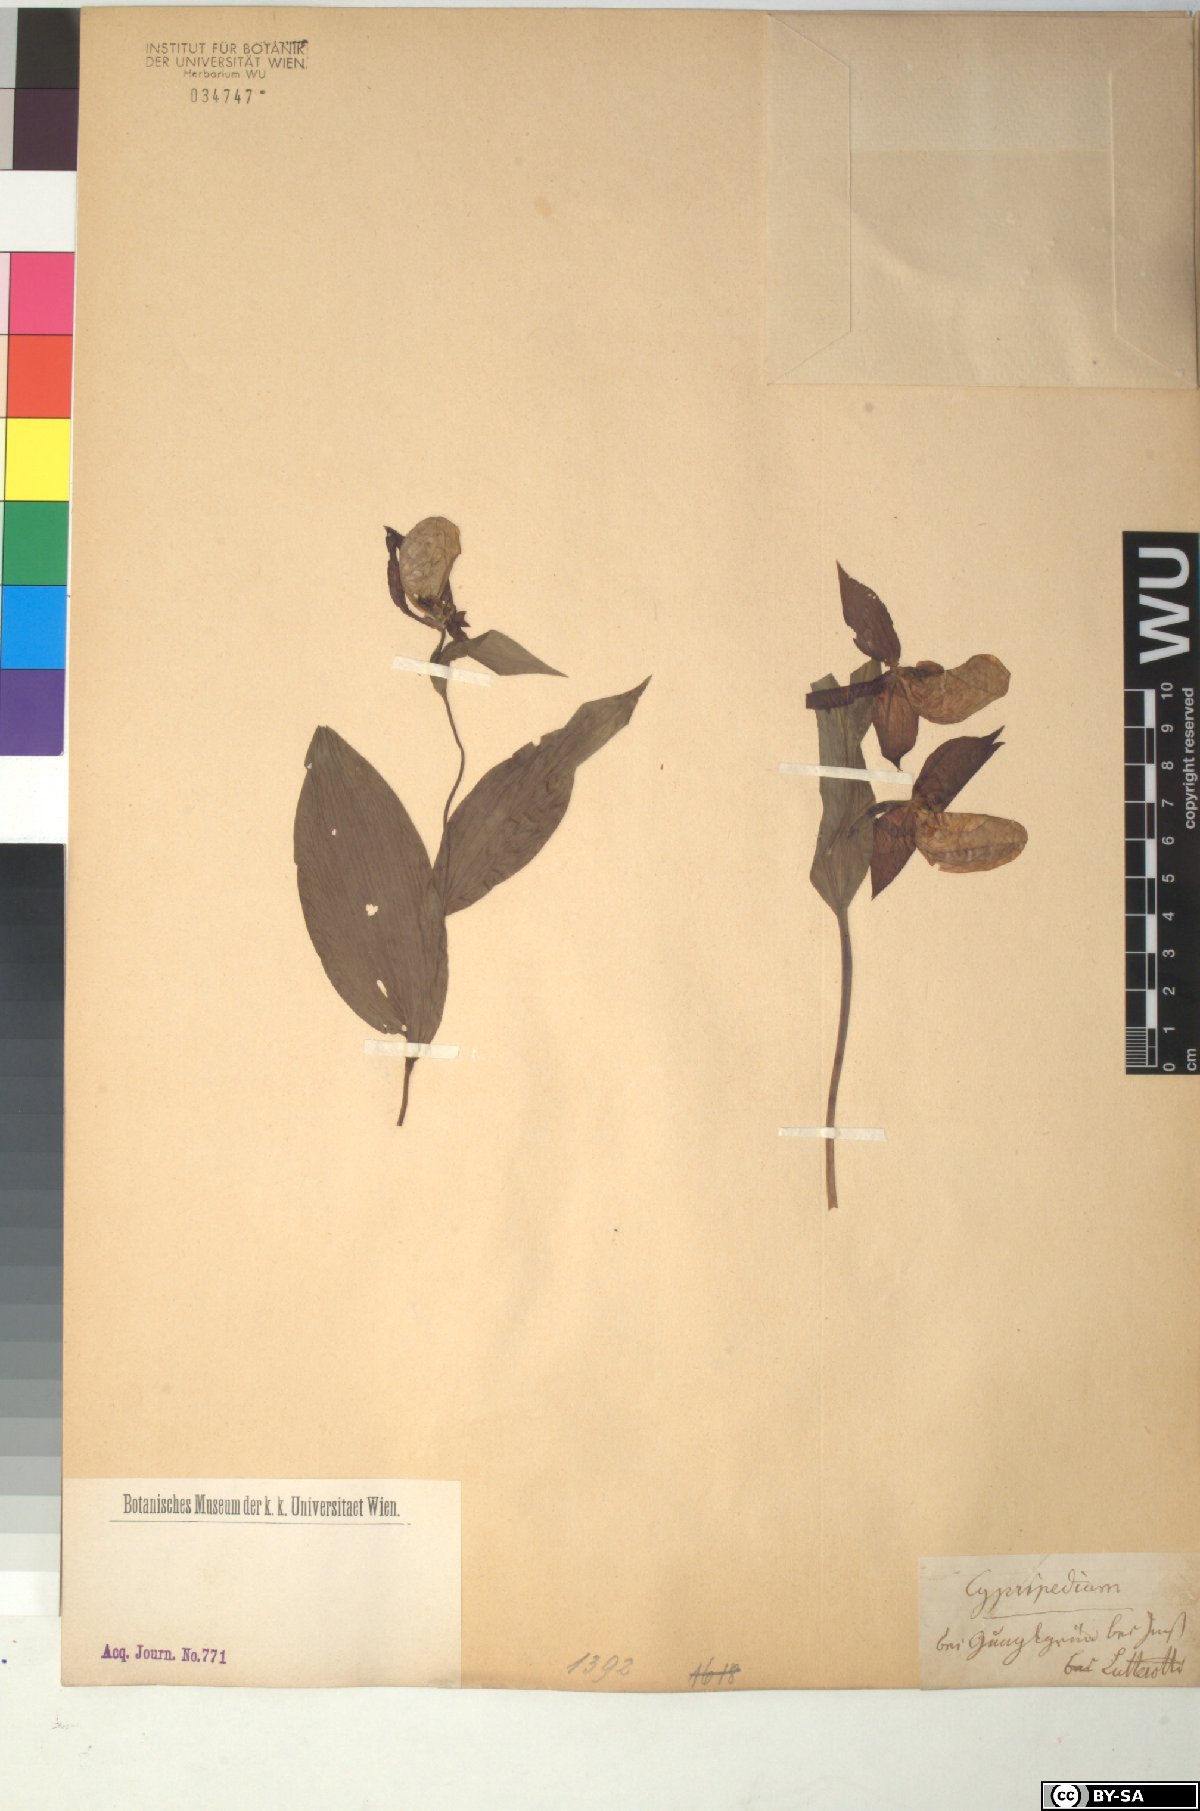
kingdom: Plantae
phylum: Tracheophyta
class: Liliopsida
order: Asparagales
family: Orchidaceae
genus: Cypripedium
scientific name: Cypripedium calceolus
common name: Lady's-slipper
